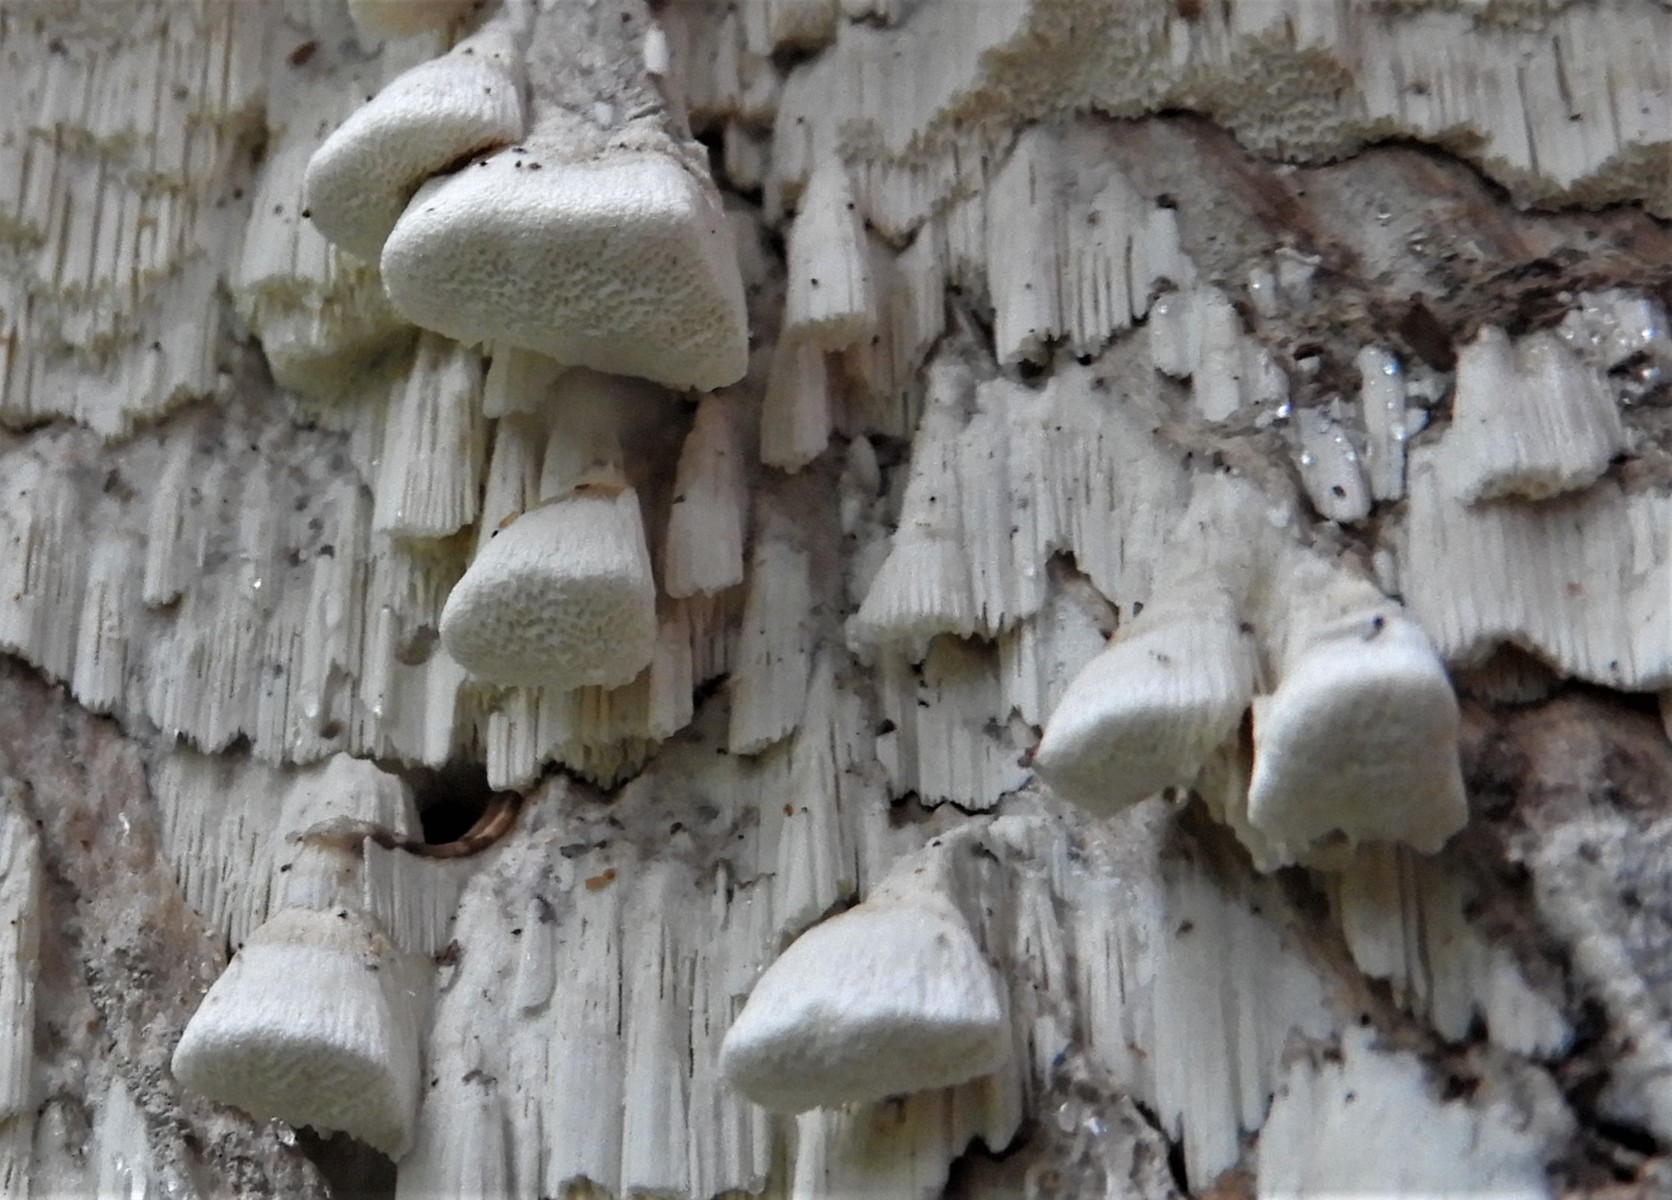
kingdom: Fungi
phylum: Basidiomycota
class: Agaricomycetes
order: Polyporales
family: Fomitopsidaceae
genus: Daedalea
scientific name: Daedalea xantha
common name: gul sejporesvamp
